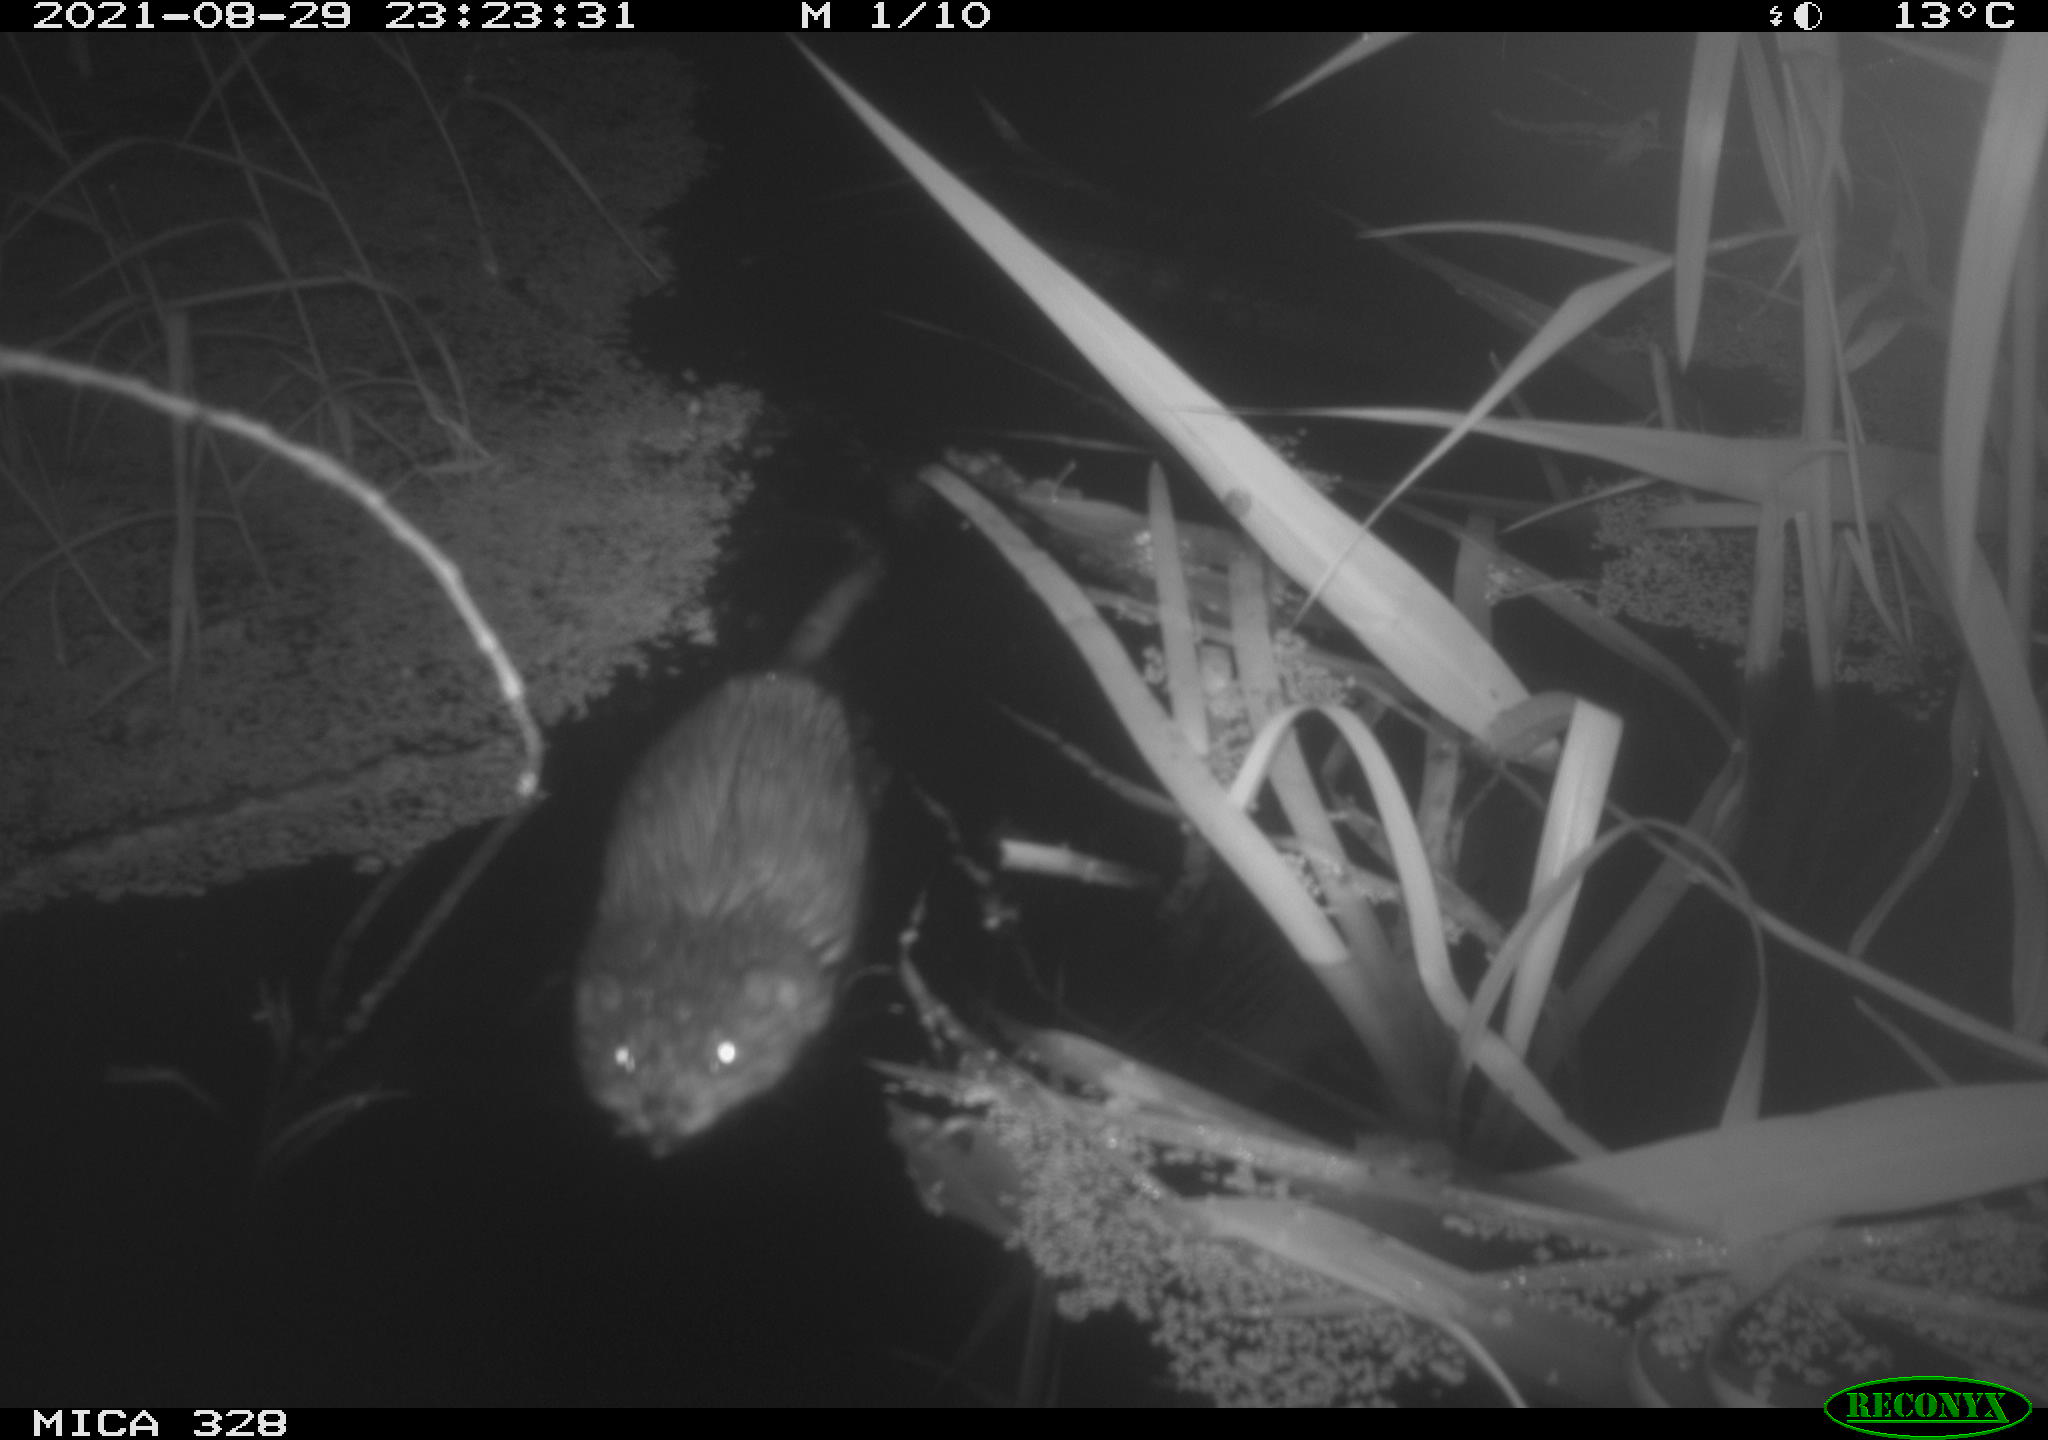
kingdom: Animalia
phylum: Chordata
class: Mammalia
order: Rodentia
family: Cricetidae
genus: Ondatra
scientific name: Ondatra zibethicus
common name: Muskrat
